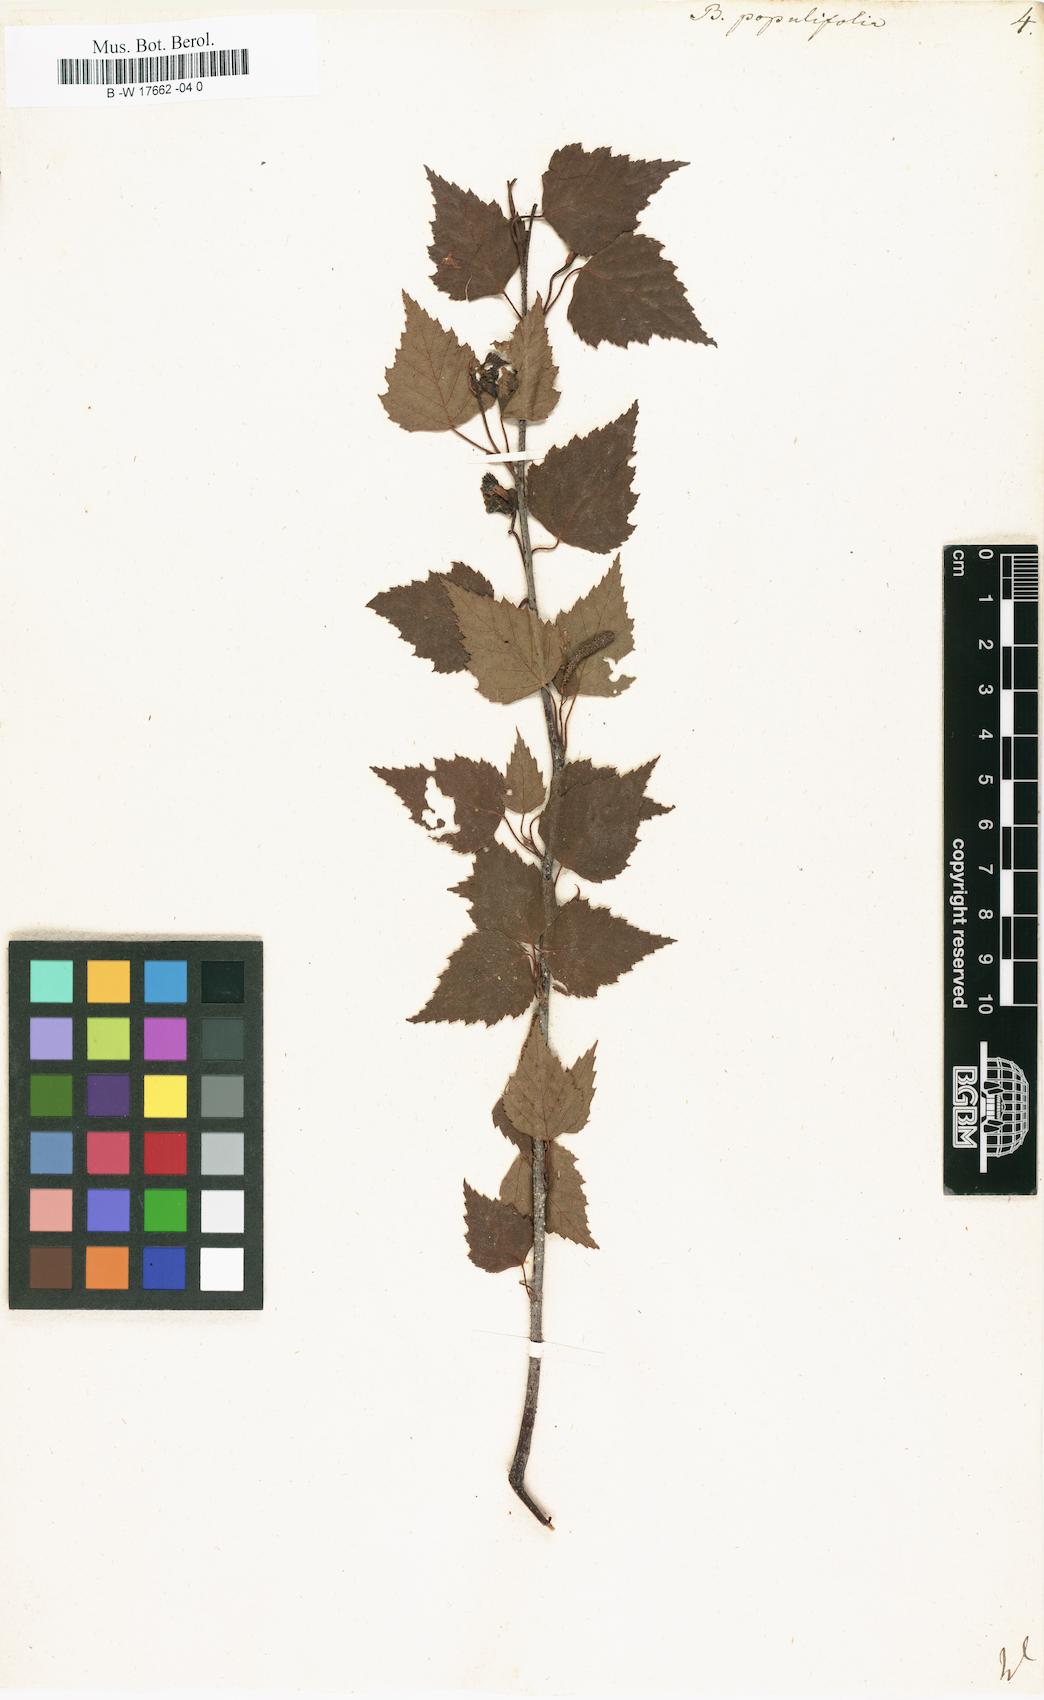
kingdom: Plantae
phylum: Tracheophyta
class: Magnoliopsida
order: Fagales
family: Betulaceae
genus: Betula
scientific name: Betula pubescens
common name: Downy birch
